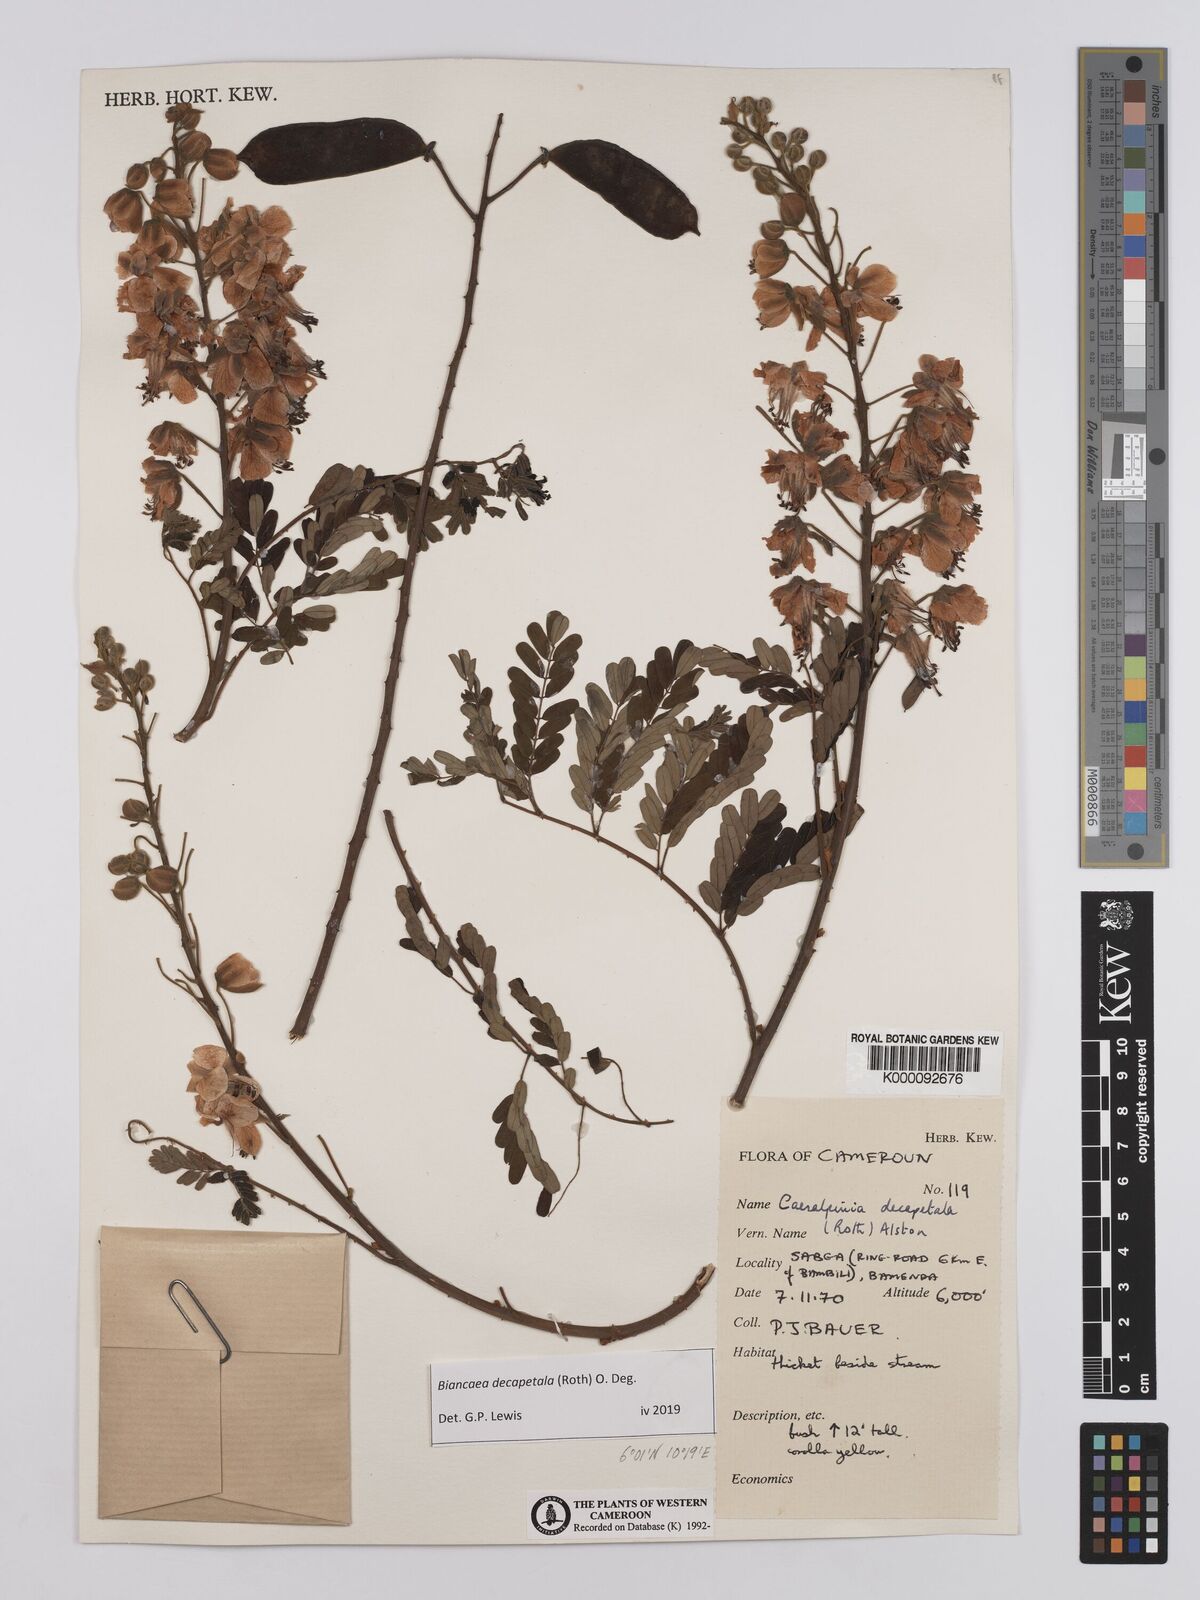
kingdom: Plantae
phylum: Tracheophyta
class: Magnoliopsida
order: Fabales
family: Fabaceae
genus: Biancaea
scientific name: Biancaea decapetala
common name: Cat's claw
